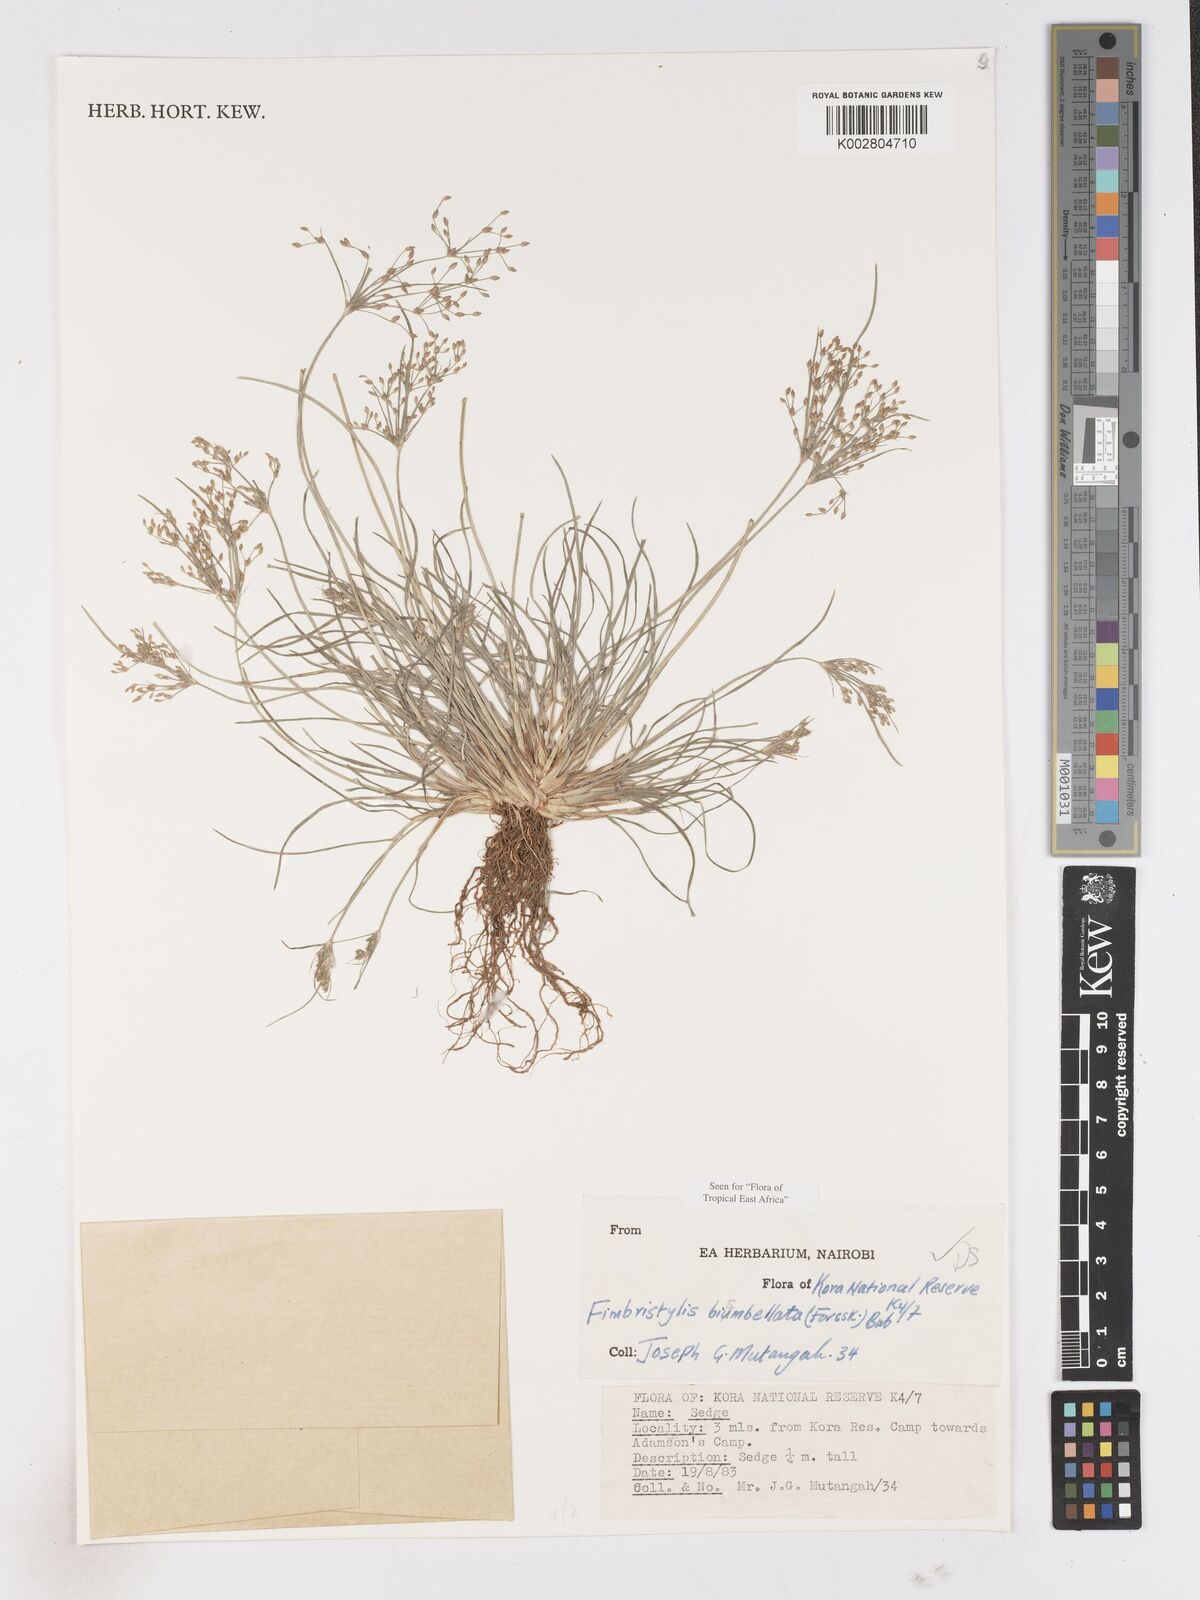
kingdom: Plantae
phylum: Tracheophyta
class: Liliopsida
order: Poales
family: Cyperaceae
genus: Fimbristylis
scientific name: Fimbristylis bisumbellata
